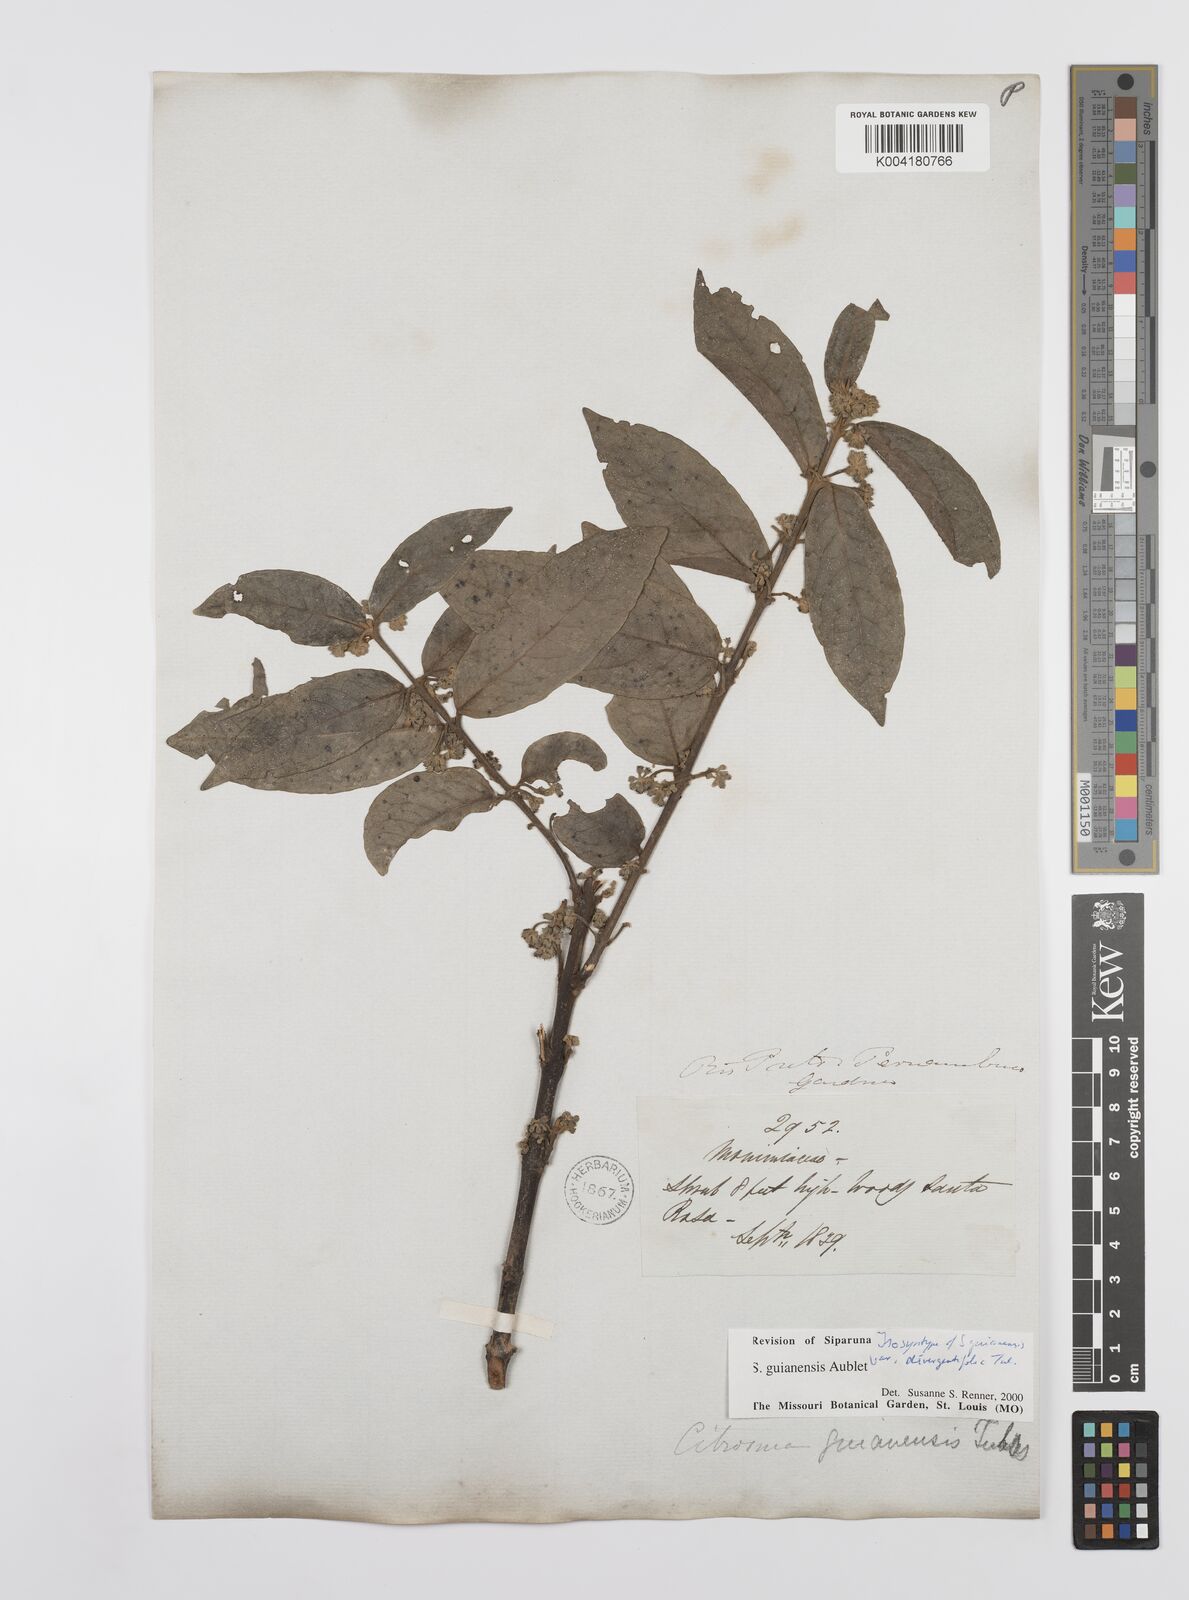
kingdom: Plantae
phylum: Tracheophyta
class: Magnoliopsida
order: Laurales
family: Siparunaceae
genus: Siparuna
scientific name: Siparuna guianensis
